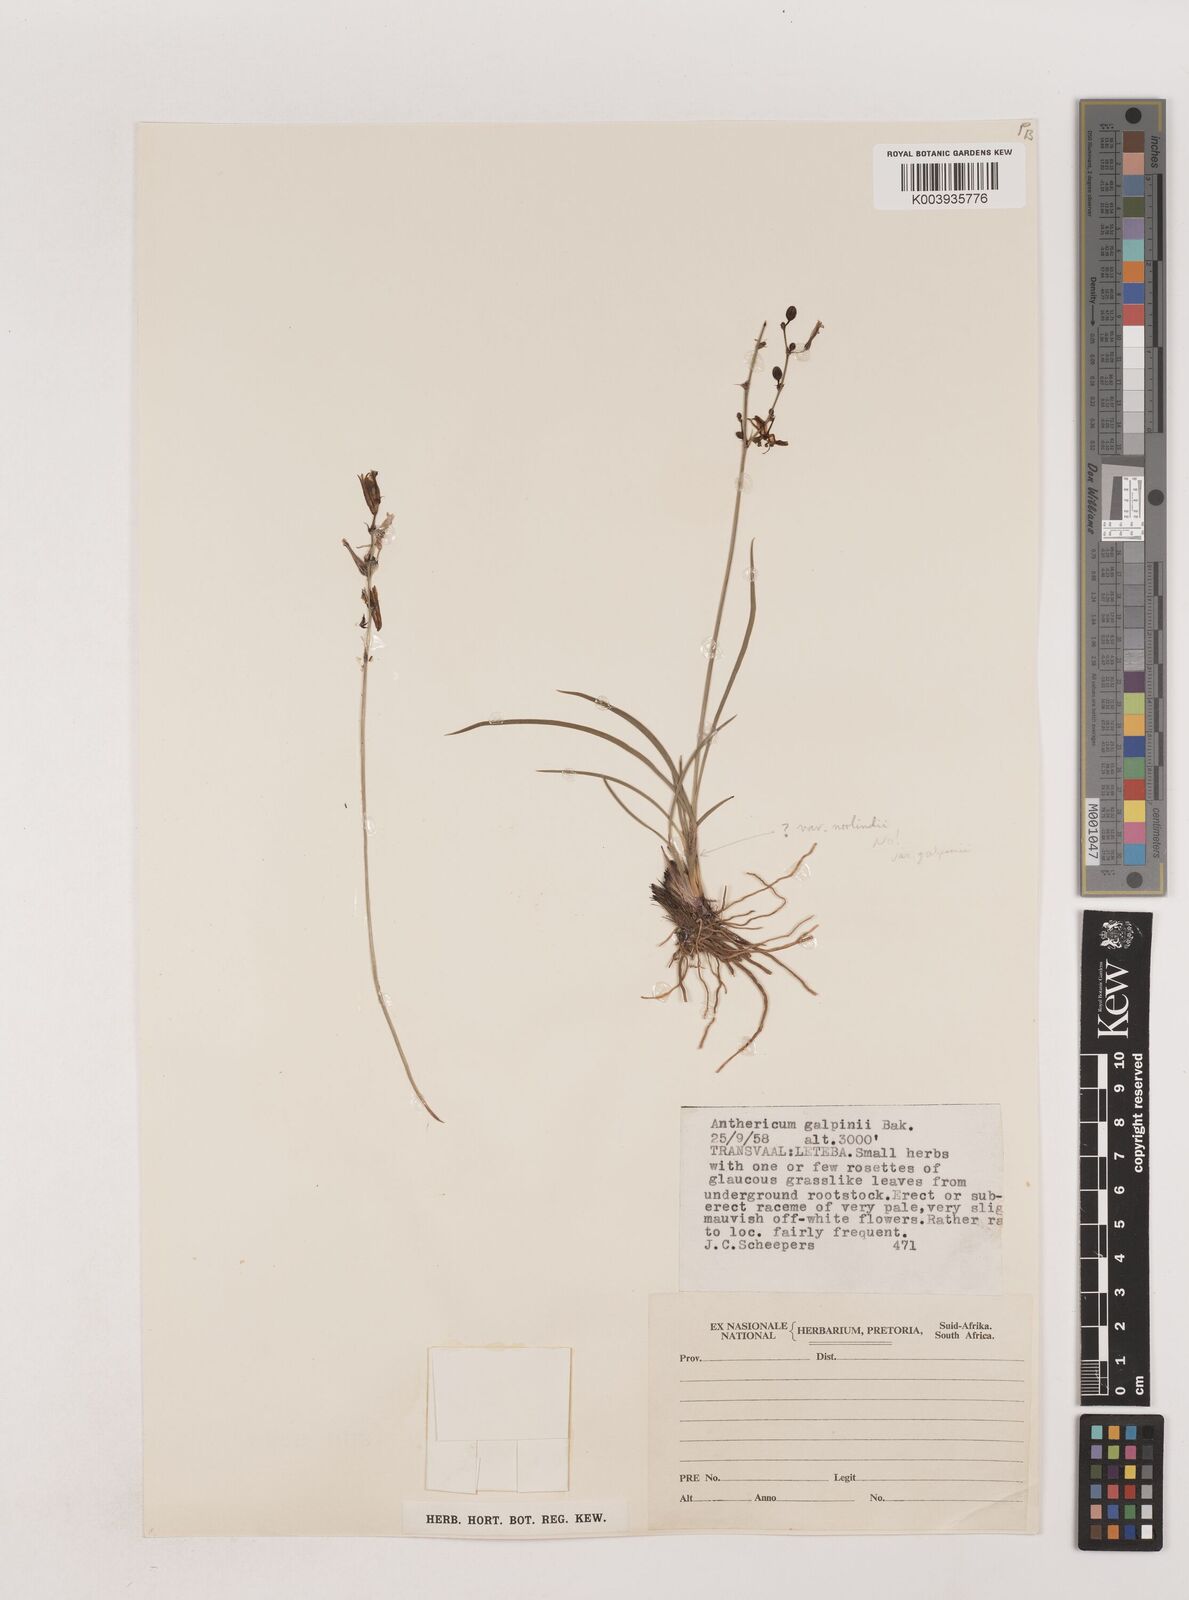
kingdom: Plantae
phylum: Tracheophyta
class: Liliopsida
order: Asparagales
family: Asparagaceae
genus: Chlorophytum
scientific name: Chlorophytum galpinii
